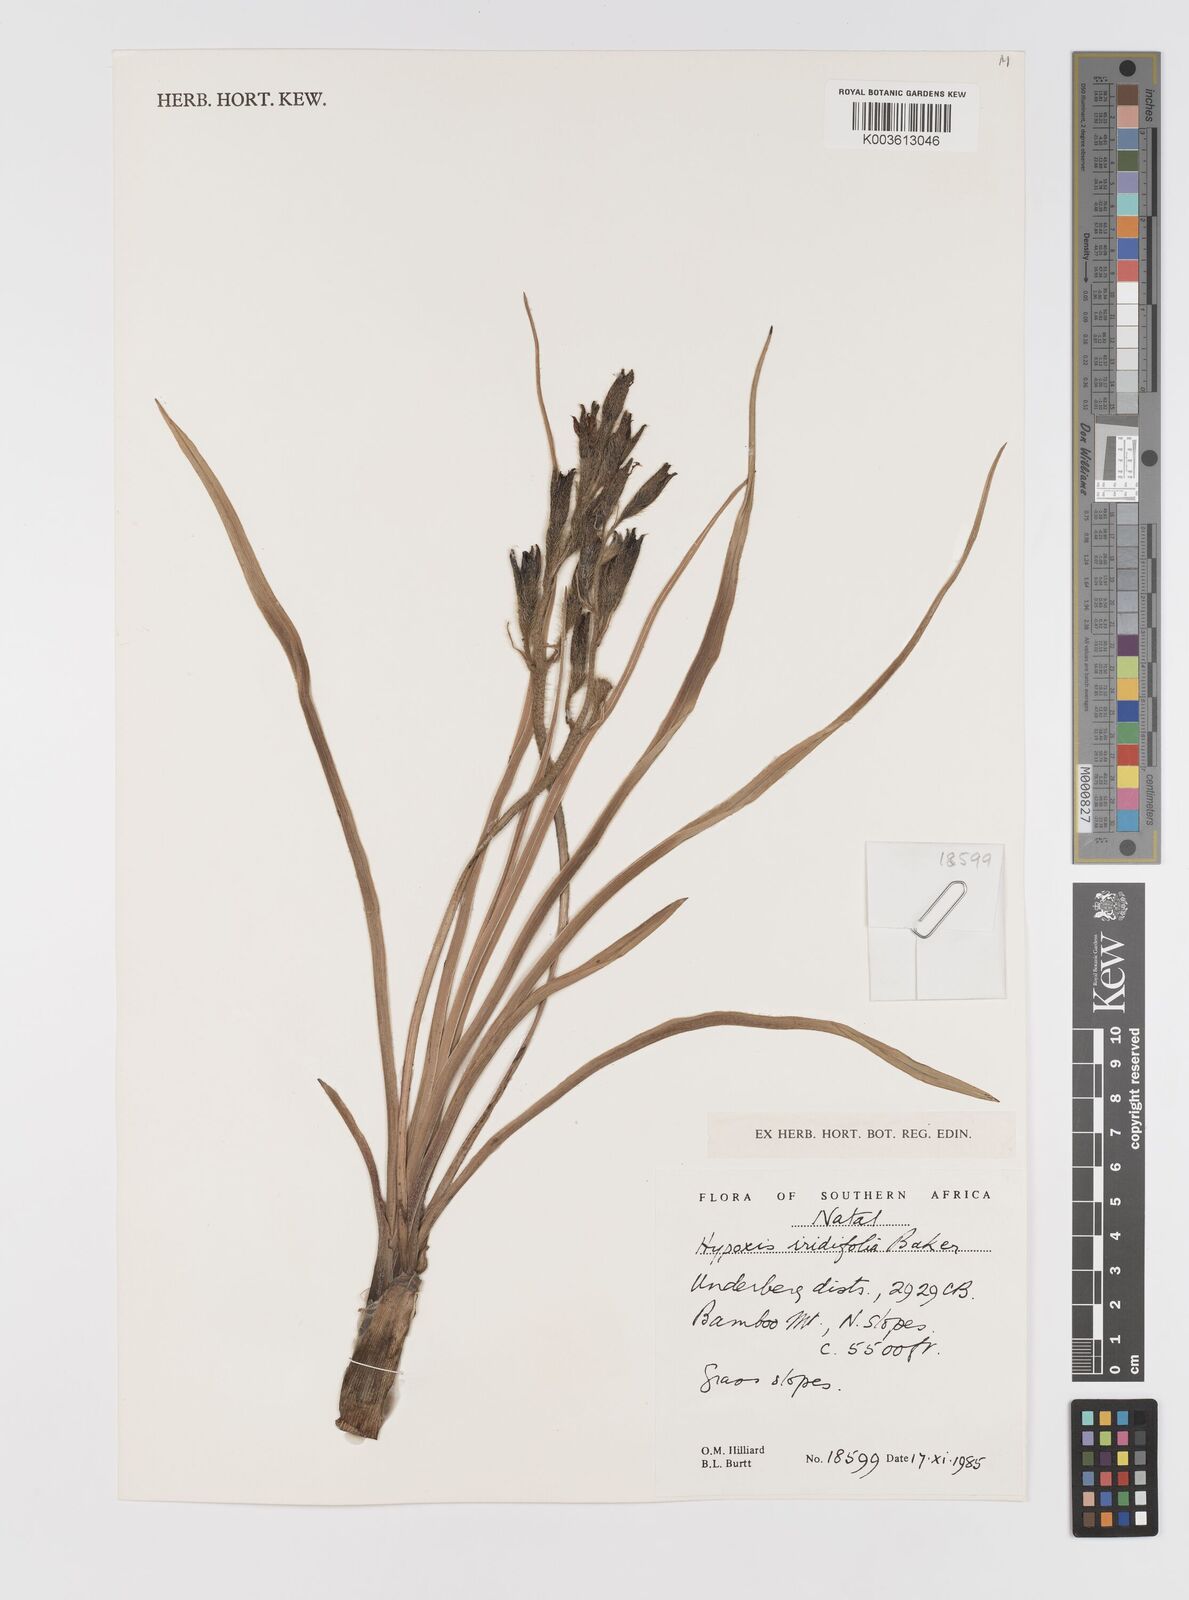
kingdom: Plantae
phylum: Tracheophyta
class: Liliopsida
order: Asparagales
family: Hypoxidaceae
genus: Hypoxis
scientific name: Hypoxis obtusa
